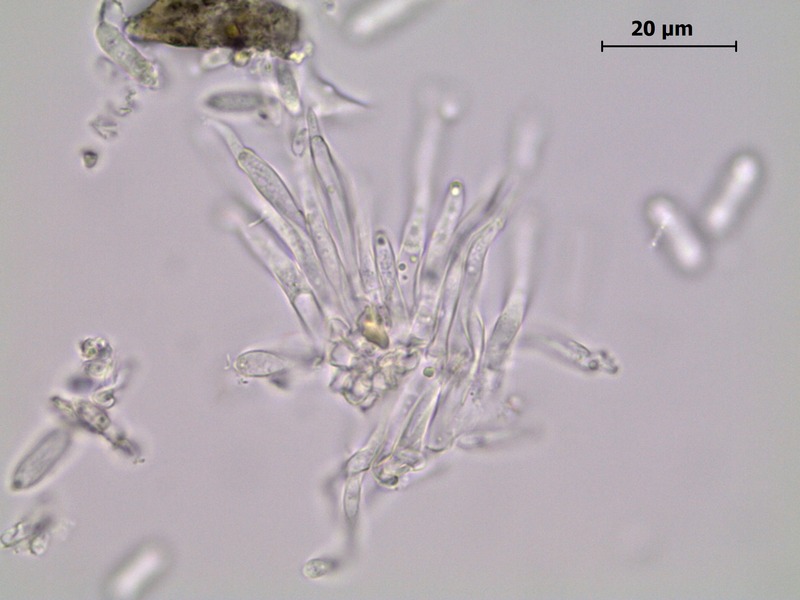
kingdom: Fungi
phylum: Ascomycota
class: Dothideomycetes
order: Mycosphaerellales
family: Mycosphaerellaceae
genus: Ramularia
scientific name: Ramularia veronicae
